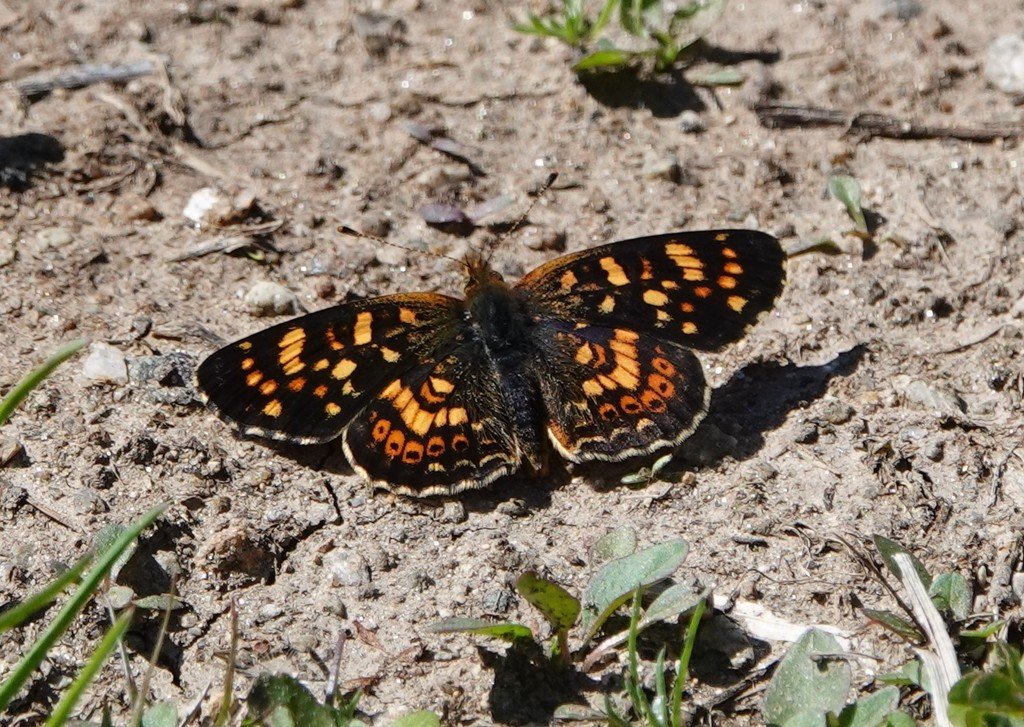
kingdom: Animalia
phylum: Arthropoda
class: Insecta
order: Lepidoptera
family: Nymphalidae
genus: Phyciodes
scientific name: Phyciodes tharos
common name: Field Crescent
